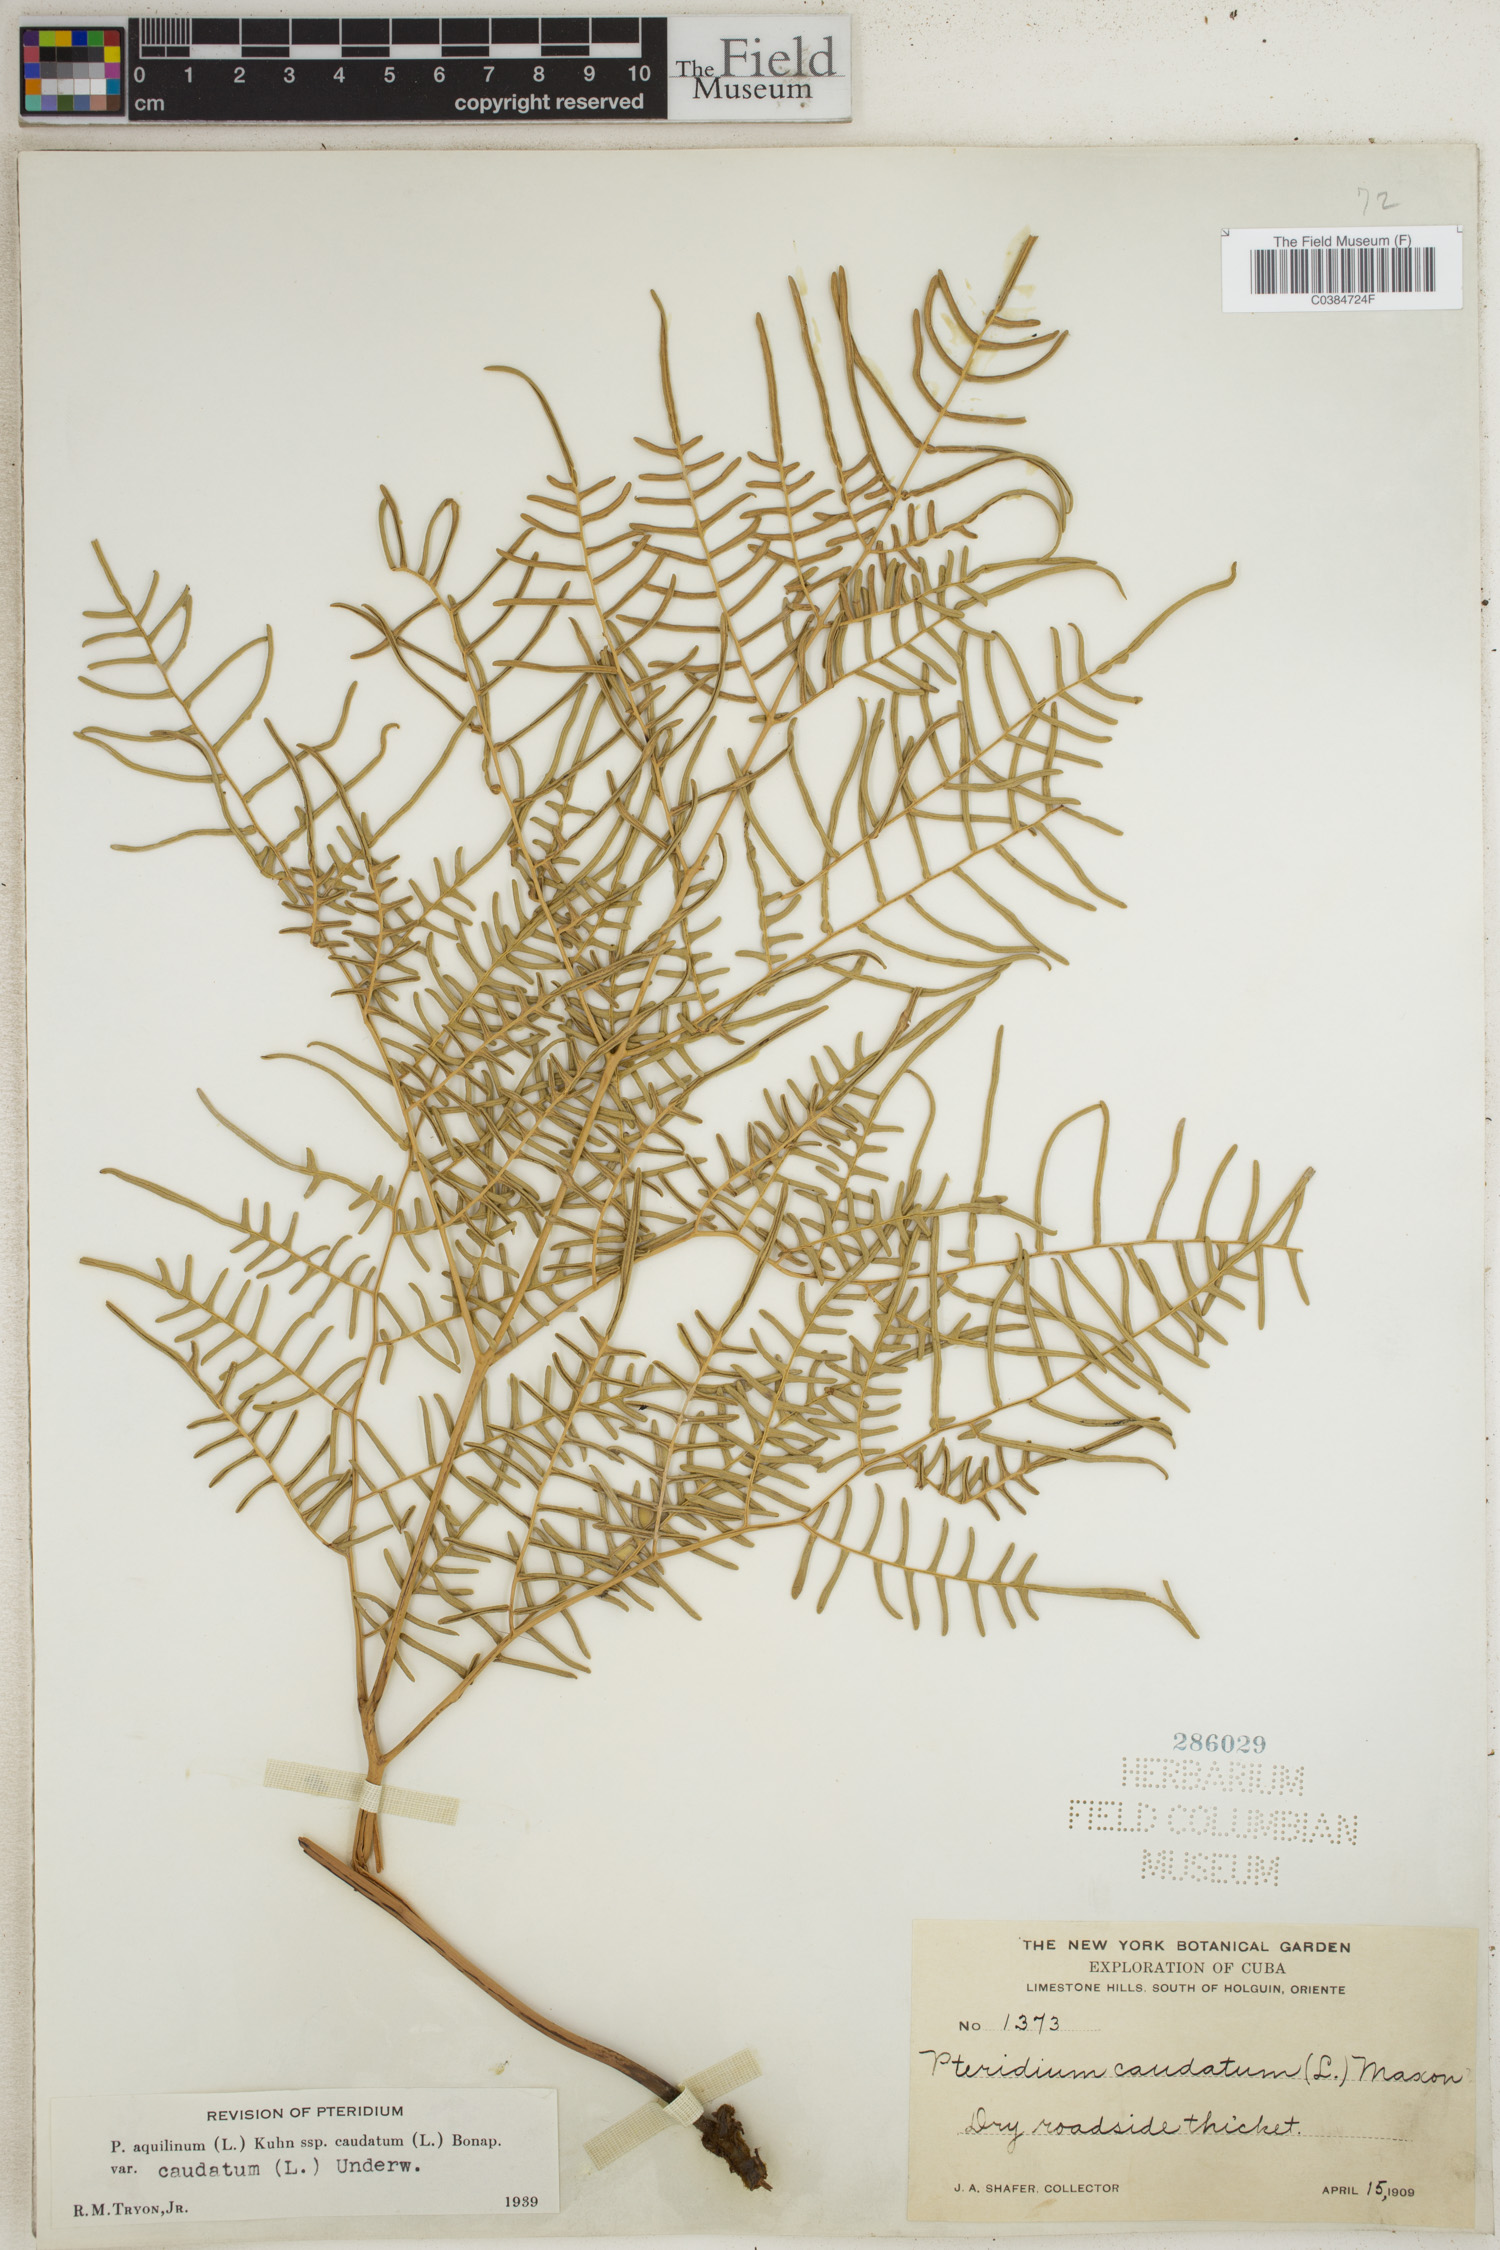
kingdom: Plantae
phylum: Tracheophyta
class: Polypodiopsida
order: Polypodiales
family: Dennstaedtiaceae
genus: Pteridium
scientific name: Pteridium caudatum
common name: Southern bracken fern
